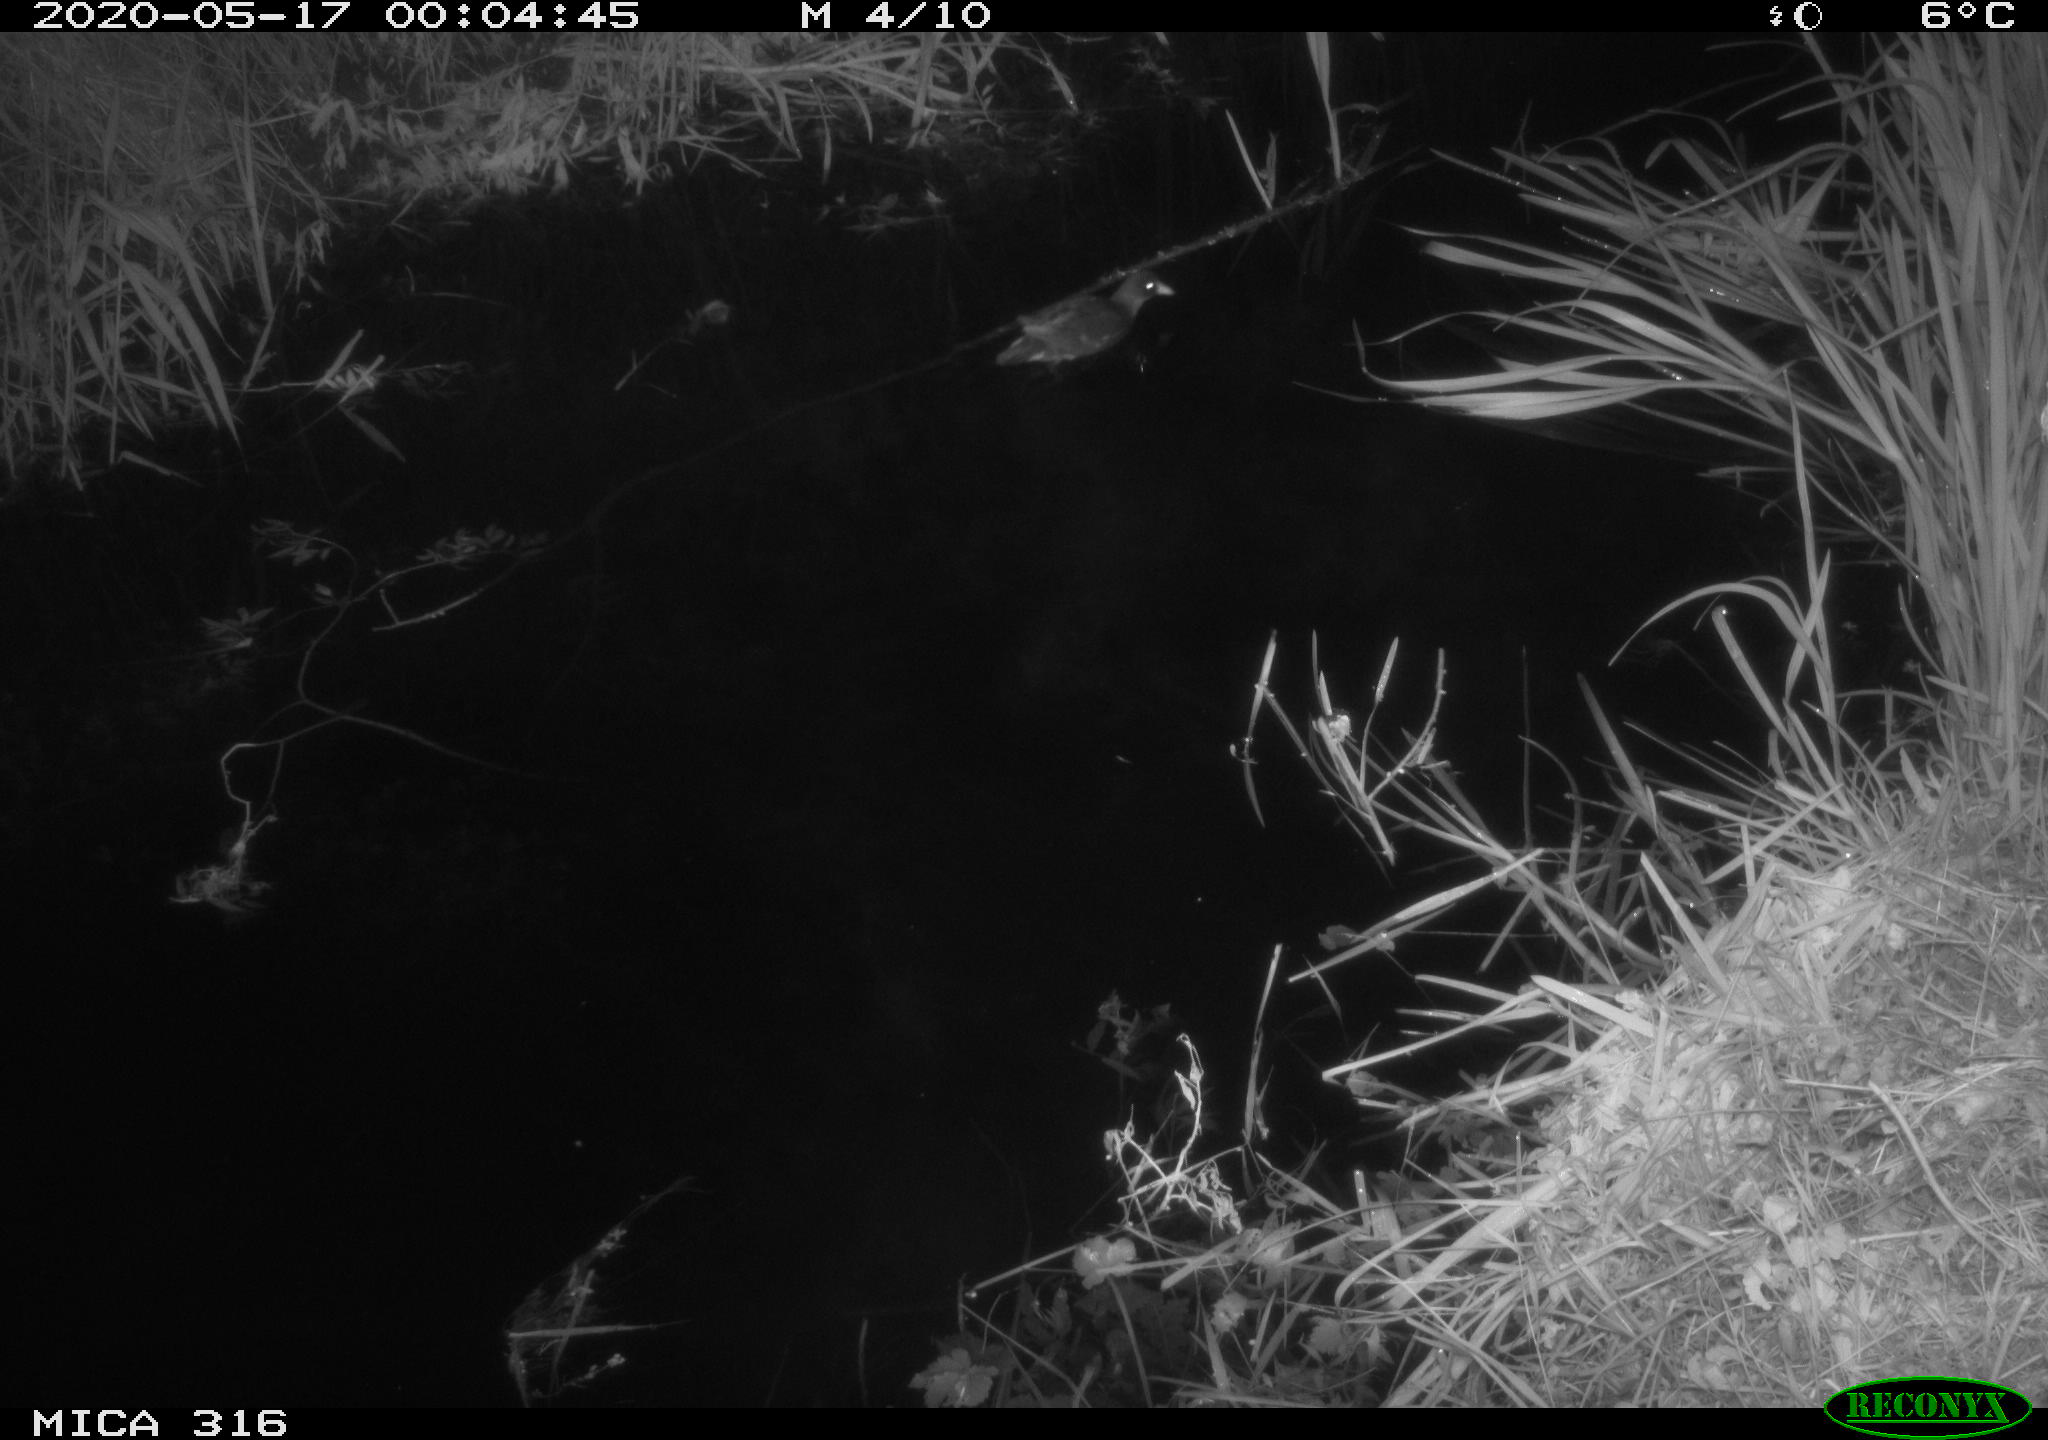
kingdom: Animalia
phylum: Chordata
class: Aves
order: Gruiformes
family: Rallidae
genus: Gallinula
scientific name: Gallinula chloropus
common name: Common moorhen
